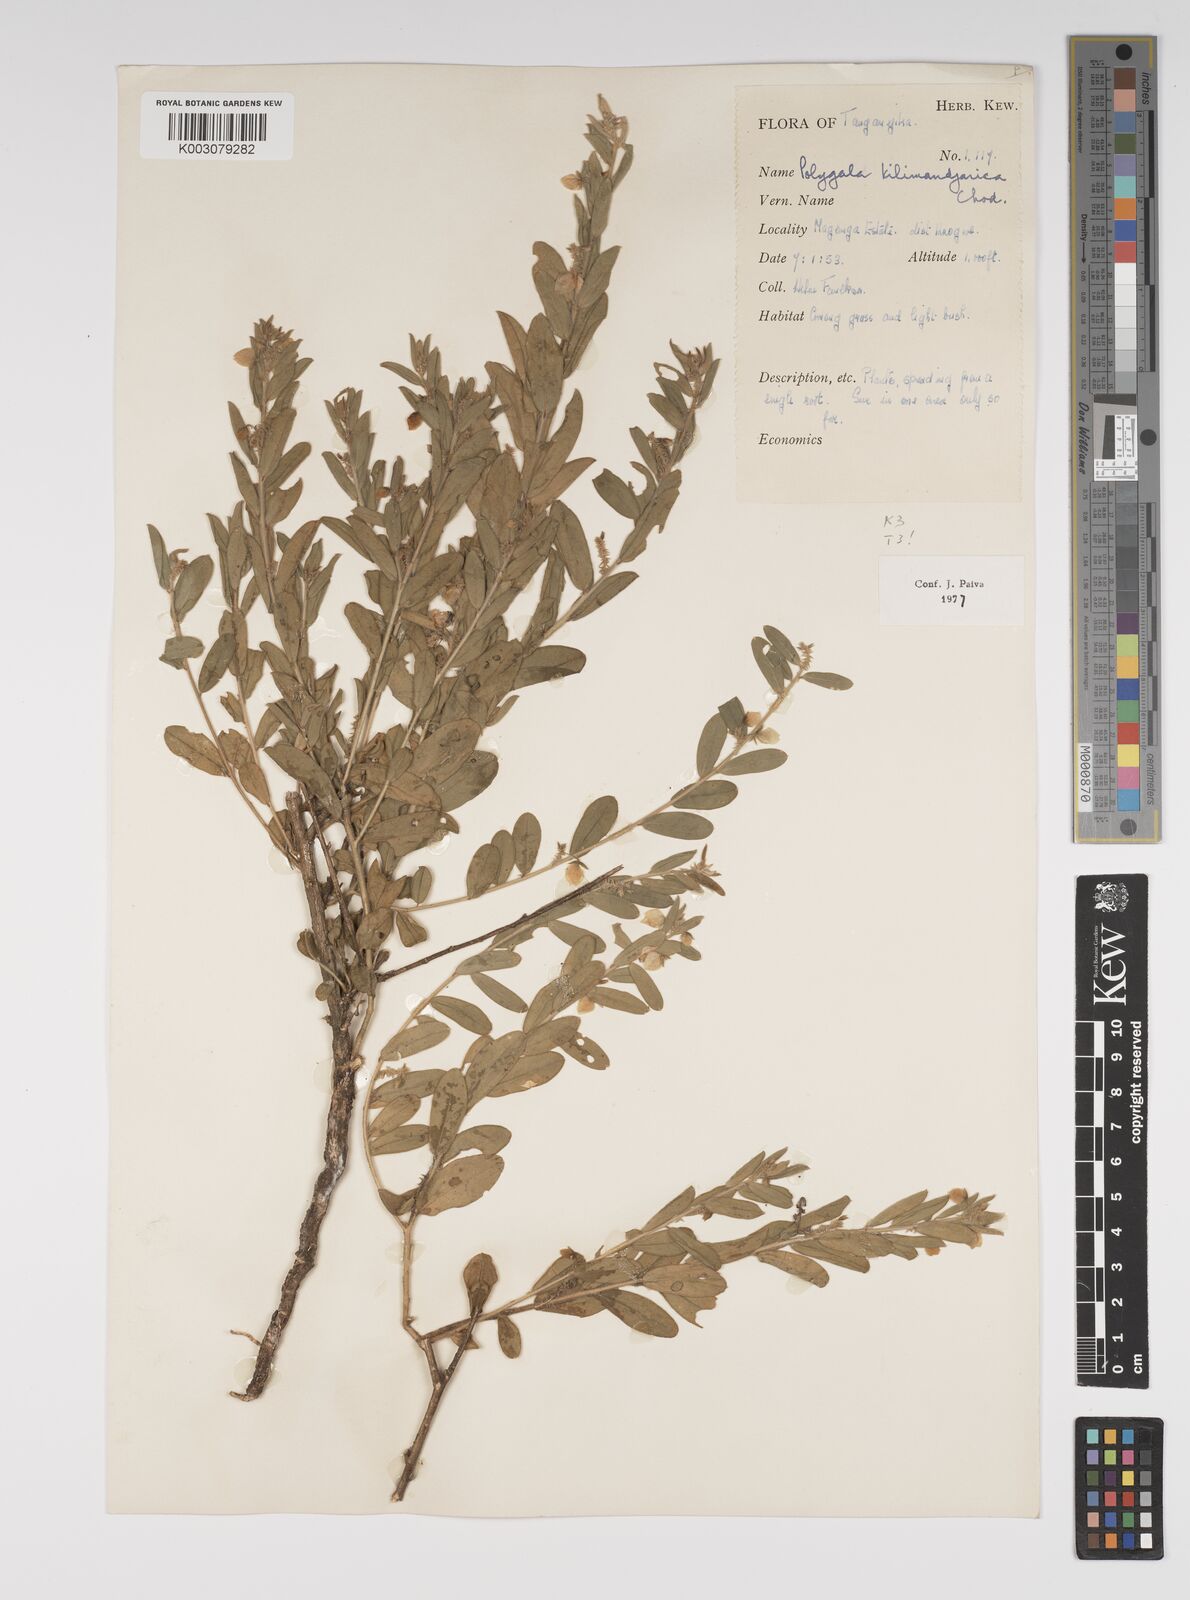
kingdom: Plantae
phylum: Tracheophyta
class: Magnoliopsida
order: Fabales
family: Polygalaceae
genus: Polygala
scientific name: Polygala kilimandjarica
